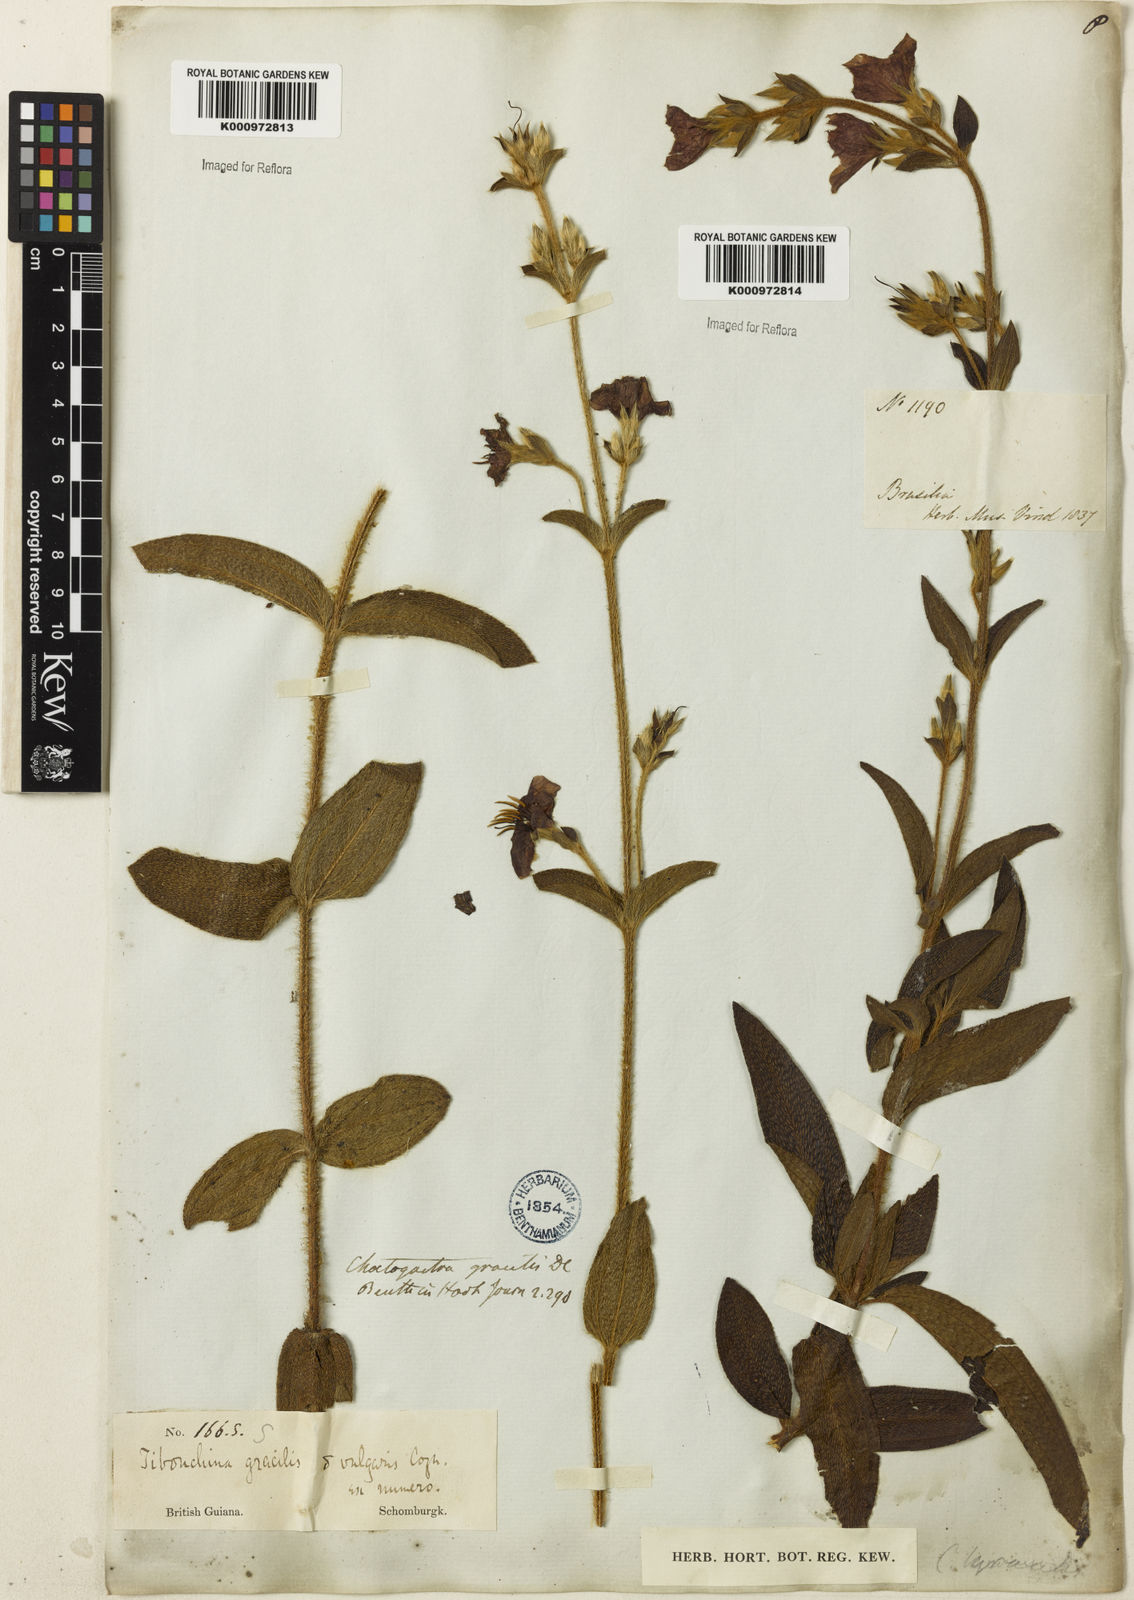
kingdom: Plantae
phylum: Tracheophyta
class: Magnoliopsida
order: Myrtales
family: Melastomataceae
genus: Chaetogastra
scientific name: Chaetogastra gracilis
